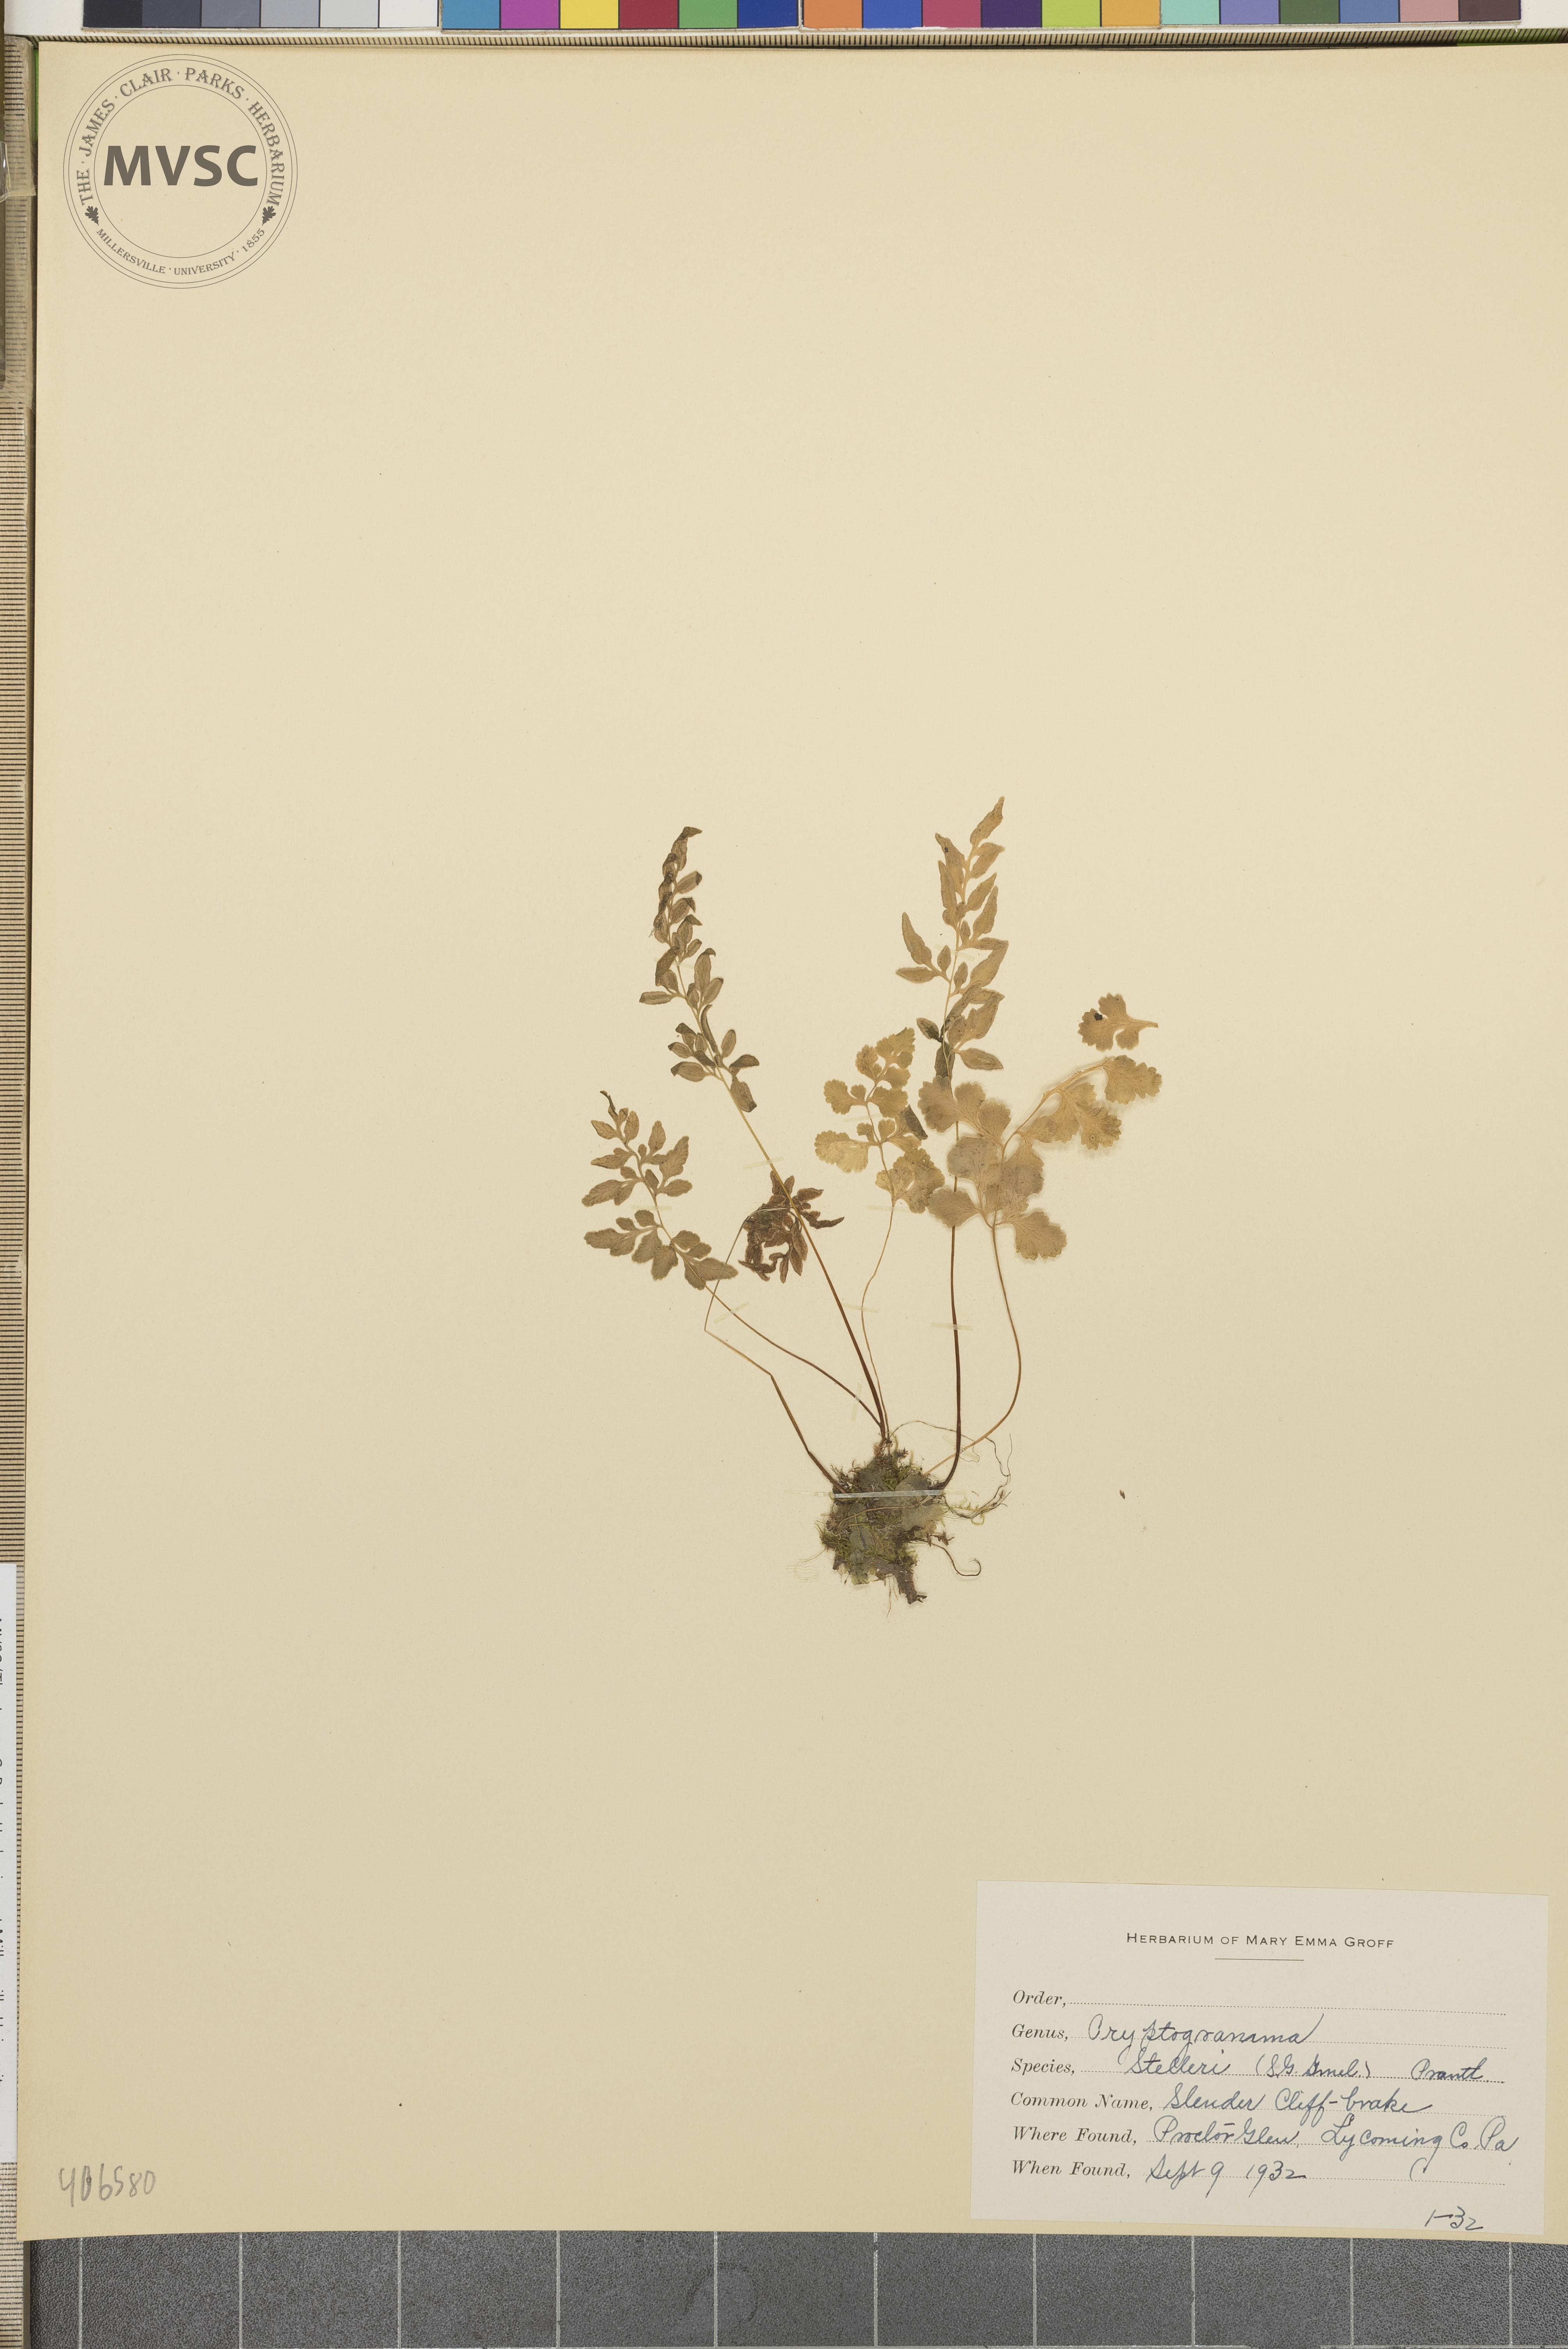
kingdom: Plantae
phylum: Tracheophyta
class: Polypodiopsida
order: Polypodiales
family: Pteridaceae
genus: Cryptogramma
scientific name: Cryptogramma stelleri
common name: Cliff-brake
